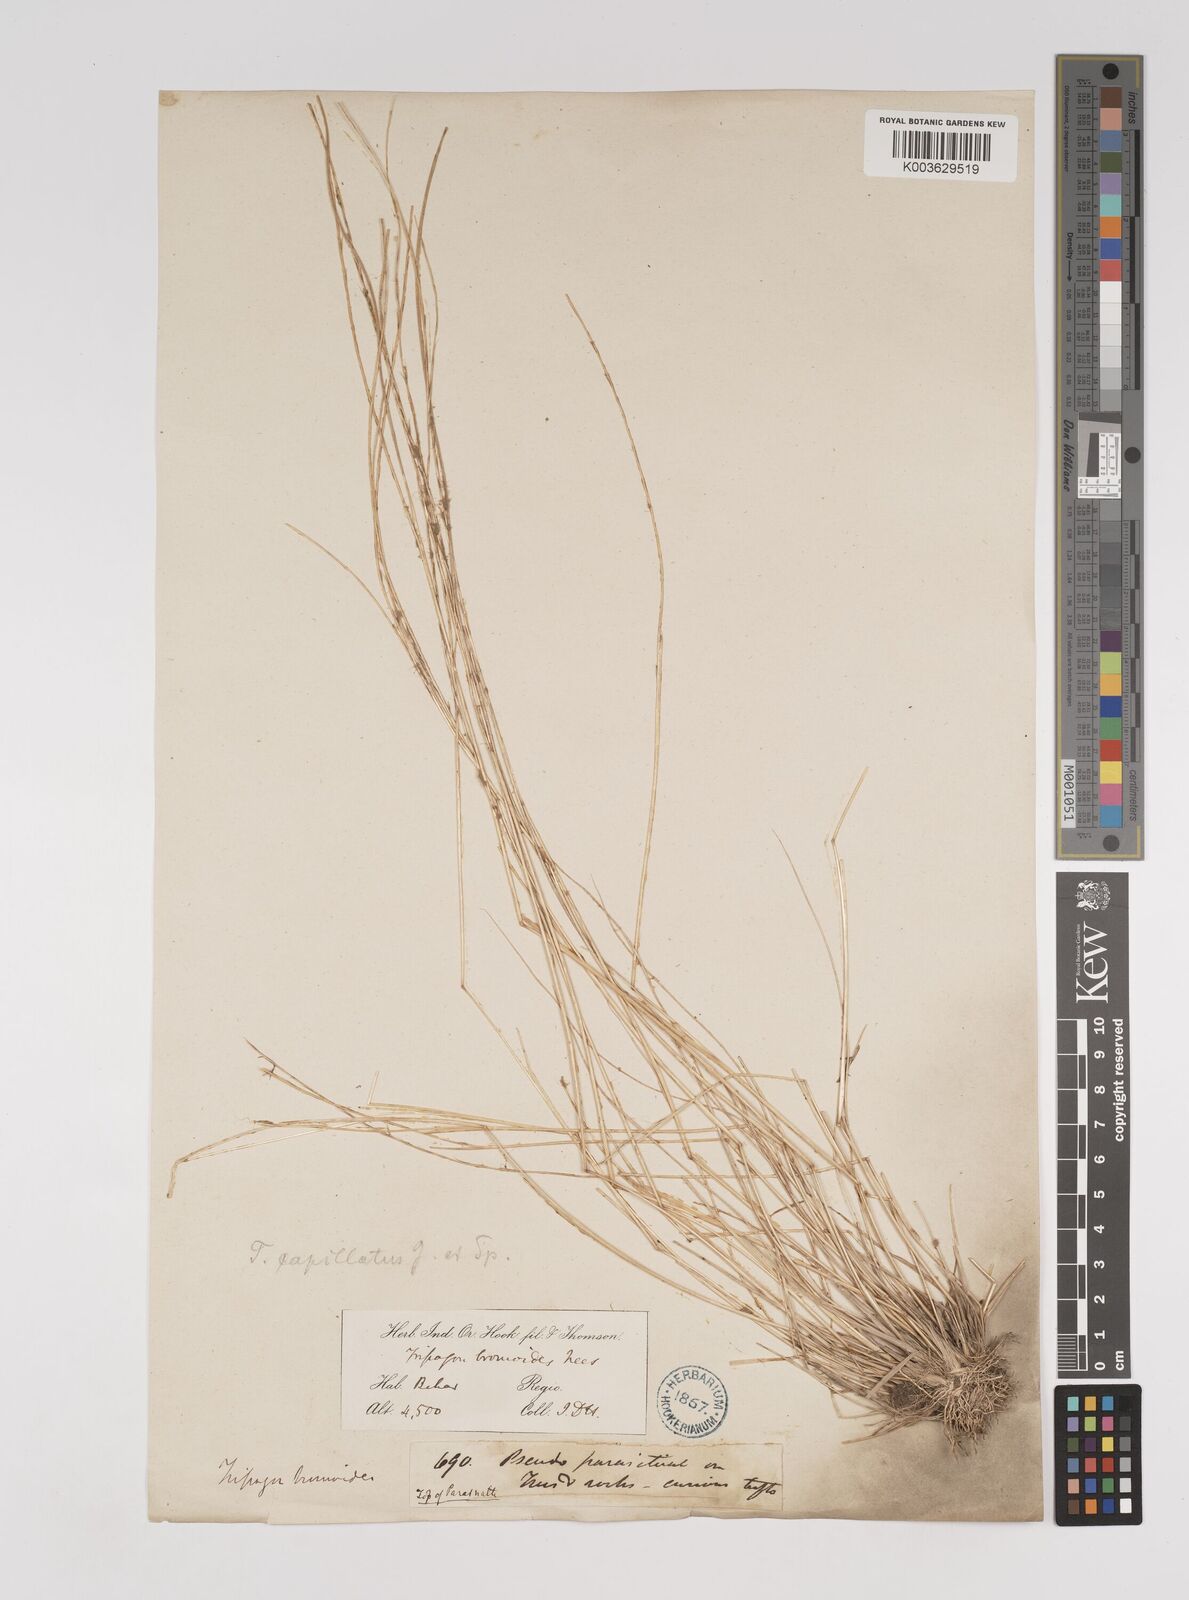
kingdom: Plantae
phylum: Tracheophyta
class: Liliopsida
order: Poales
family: Poaceae
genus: Tripogon
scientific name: Tripogon capillatus
